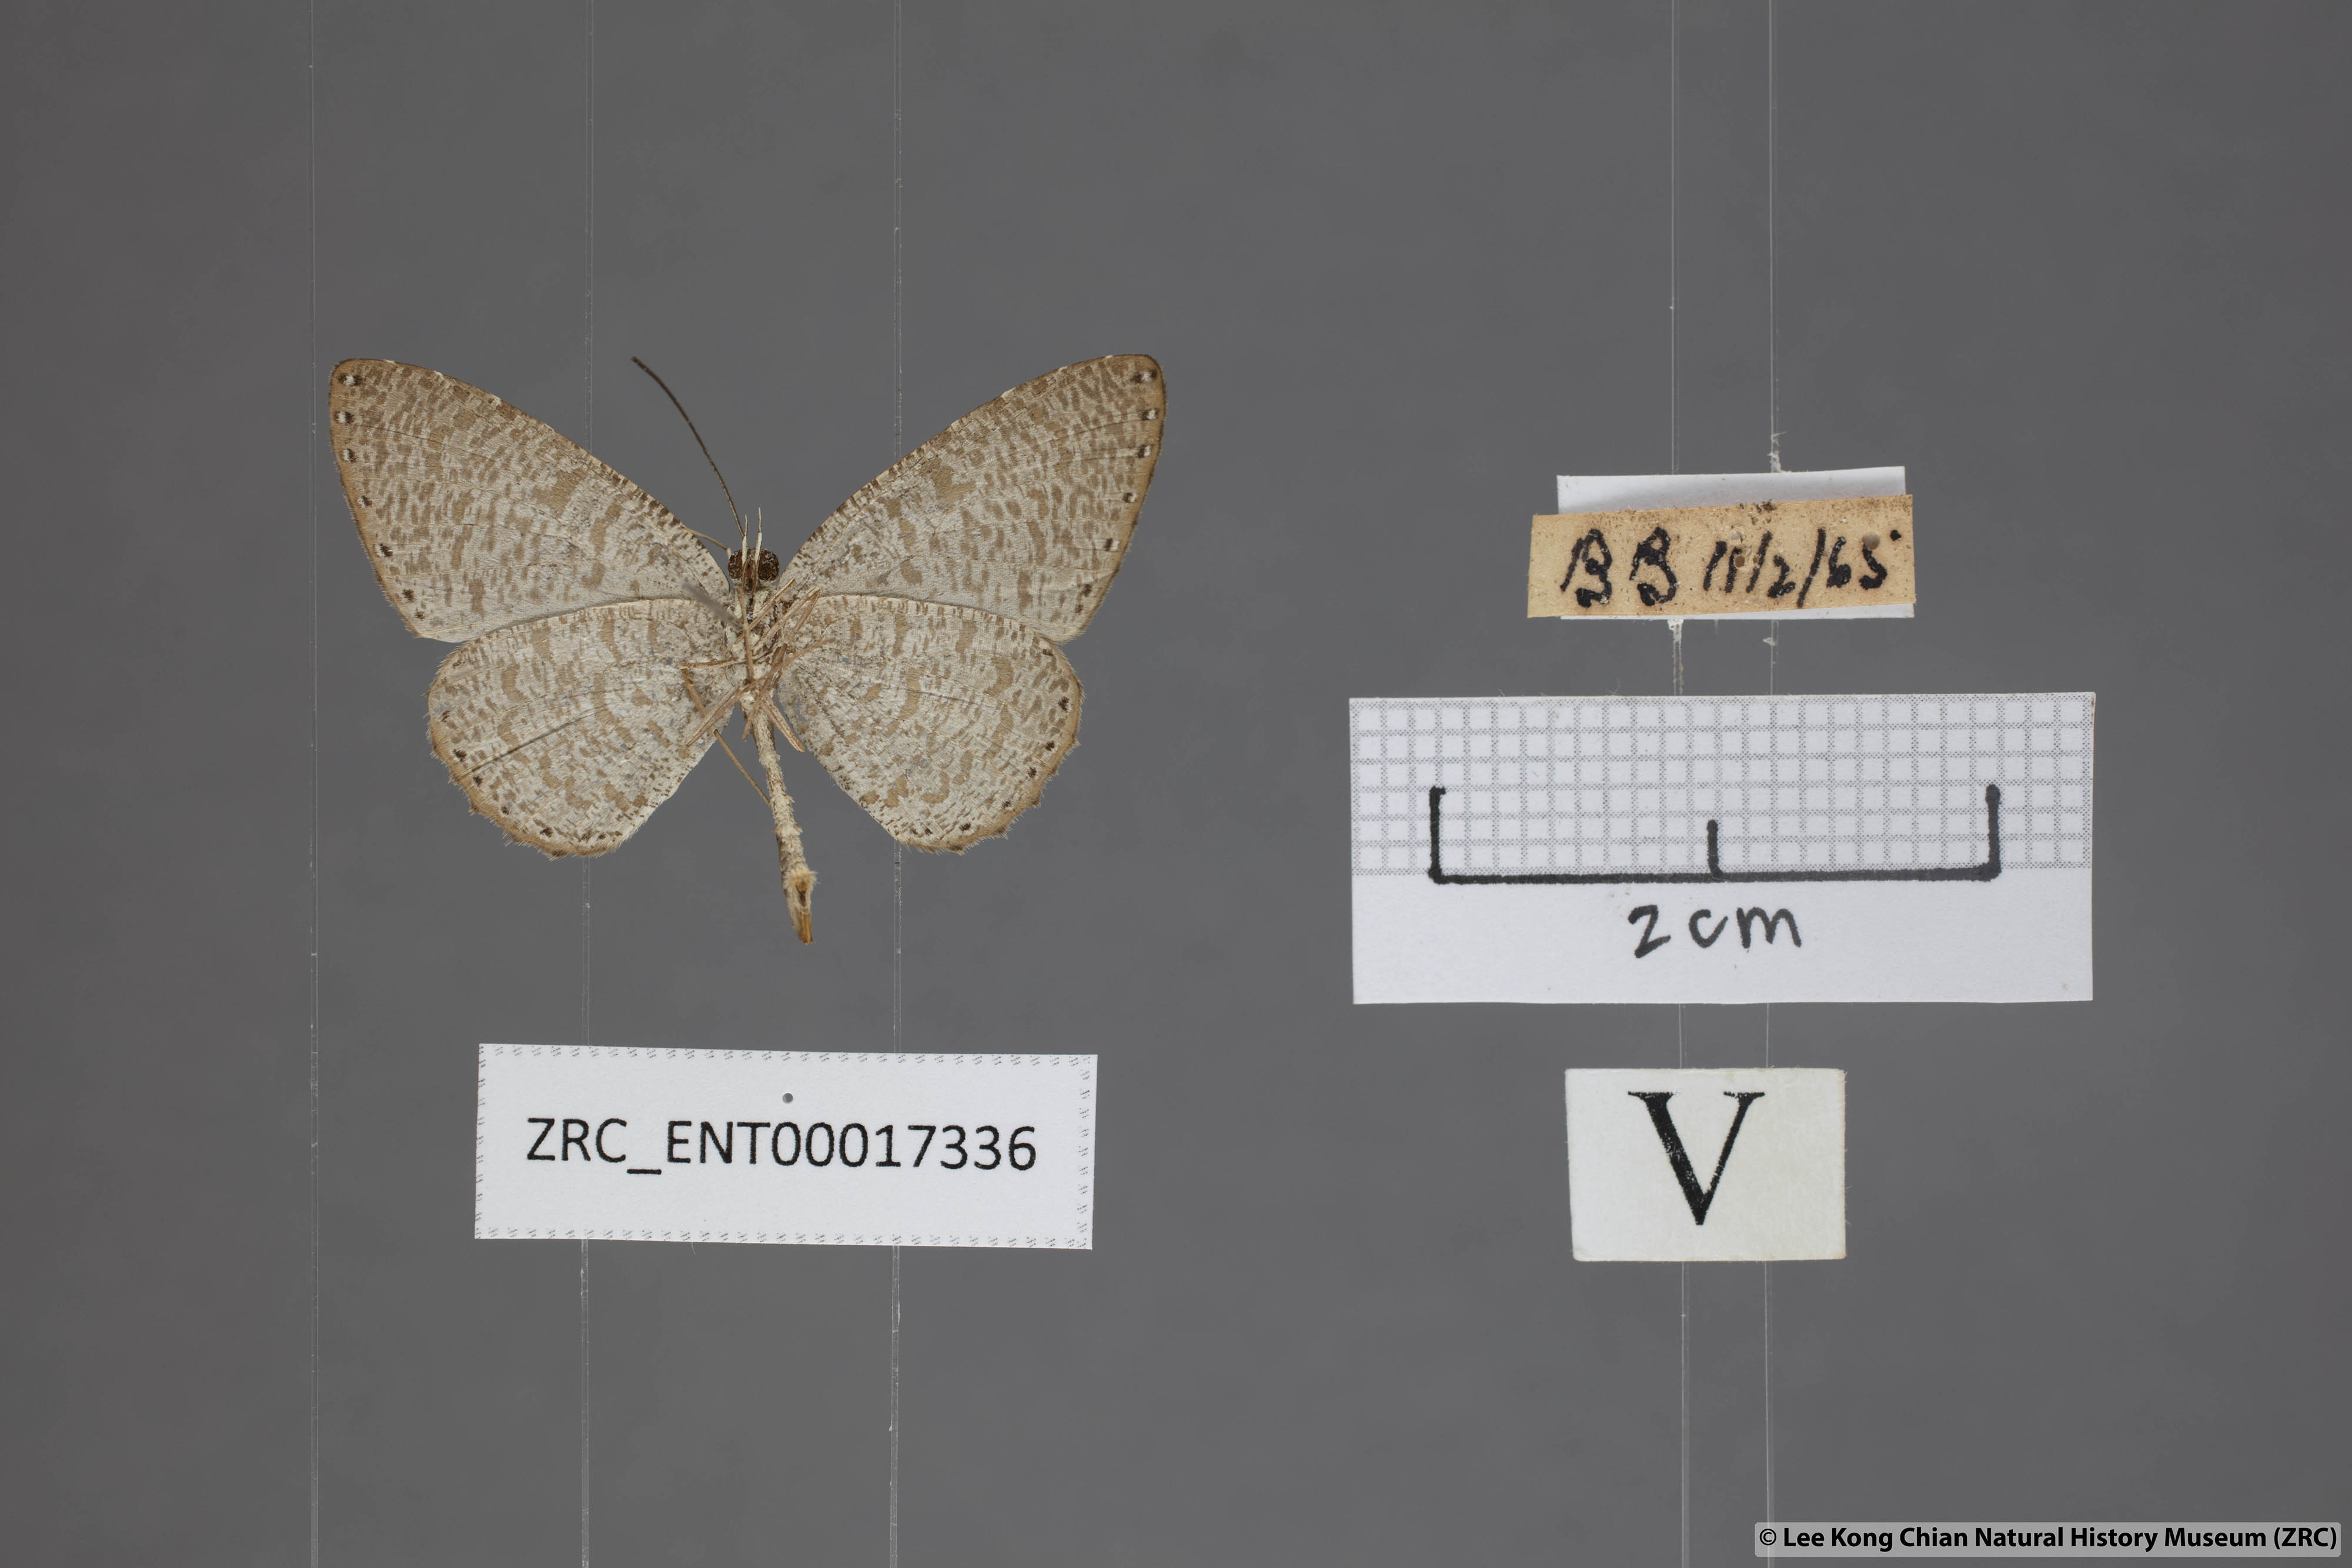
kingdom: Animalia
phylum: Arthropoda
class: Insecta
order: Lepidoptera
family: Lycaenidae
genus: Allotinus
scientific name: Allotinus sarastes
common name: Peninsular darkie
